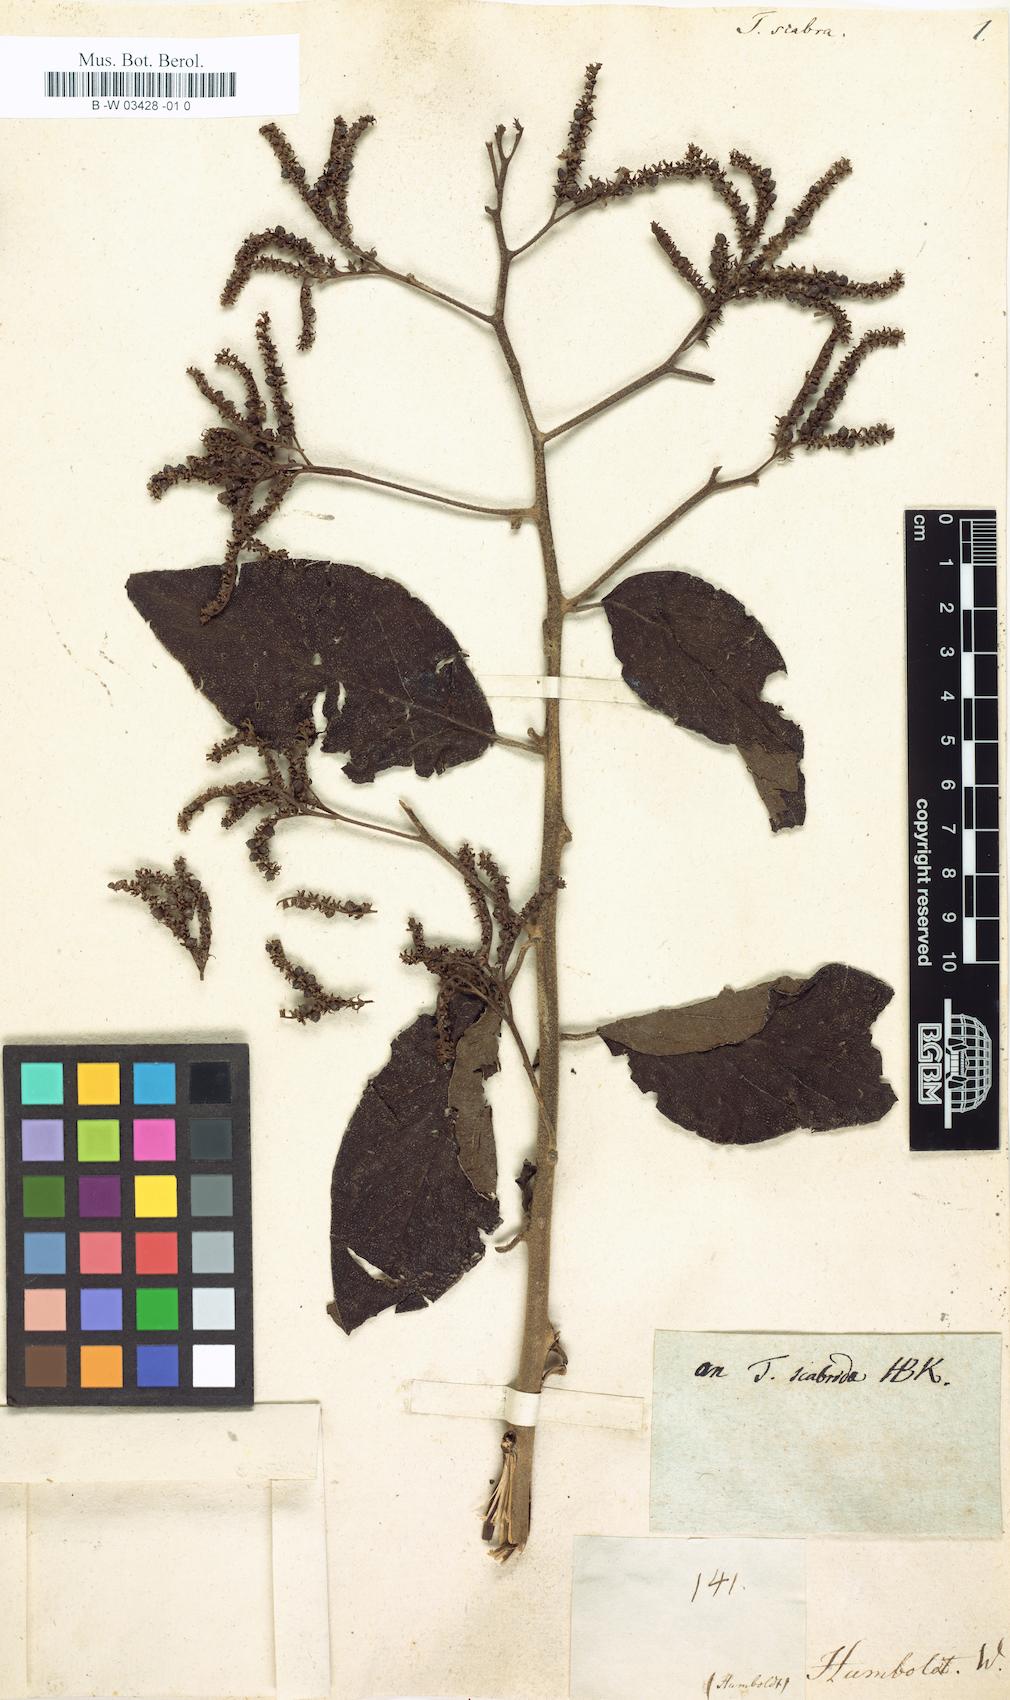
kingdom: Plantae
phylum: Tracheophyta
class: Magnoliopsida
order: Boraginales
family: Heliotropiaceae
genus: Heliotropium
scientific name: Heliotropium lamarckii
